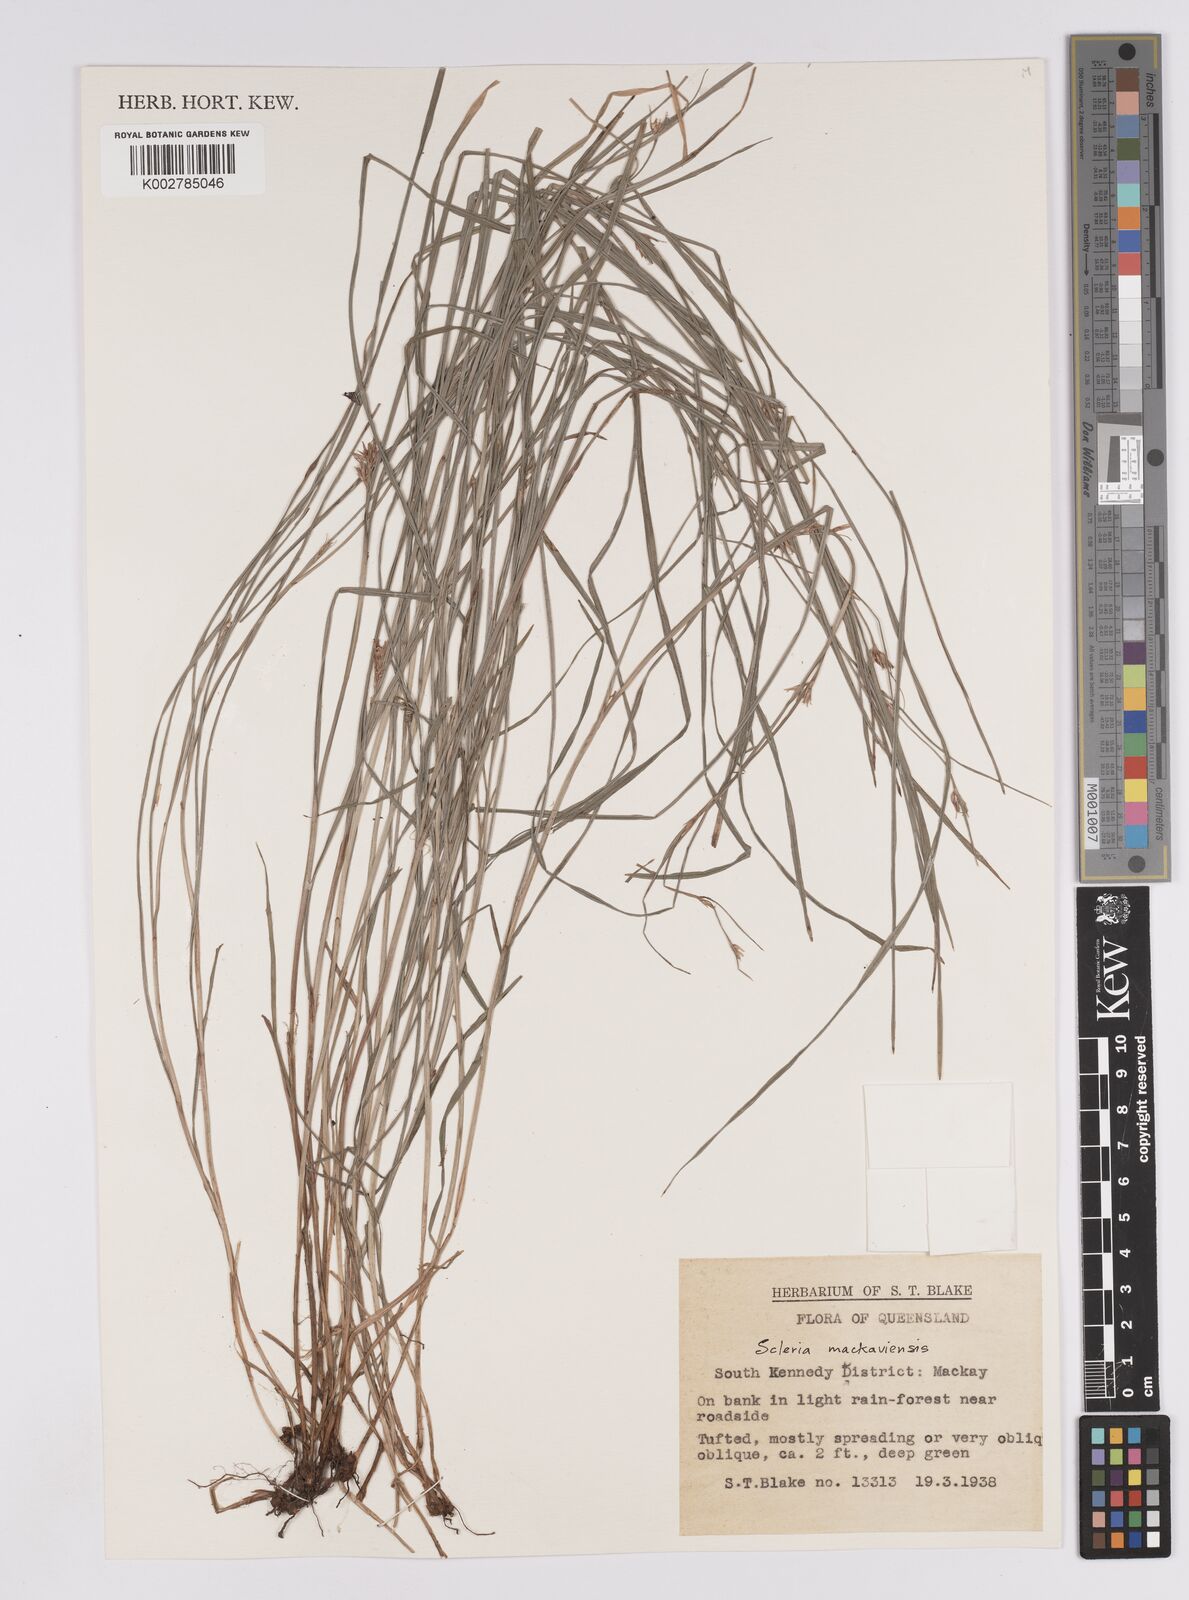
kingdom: Plantae
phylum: Tracheophyta
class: Liliopsida
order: Poales
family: Cyperaceae
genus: Scleria
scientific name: Scleria mackaviensis
